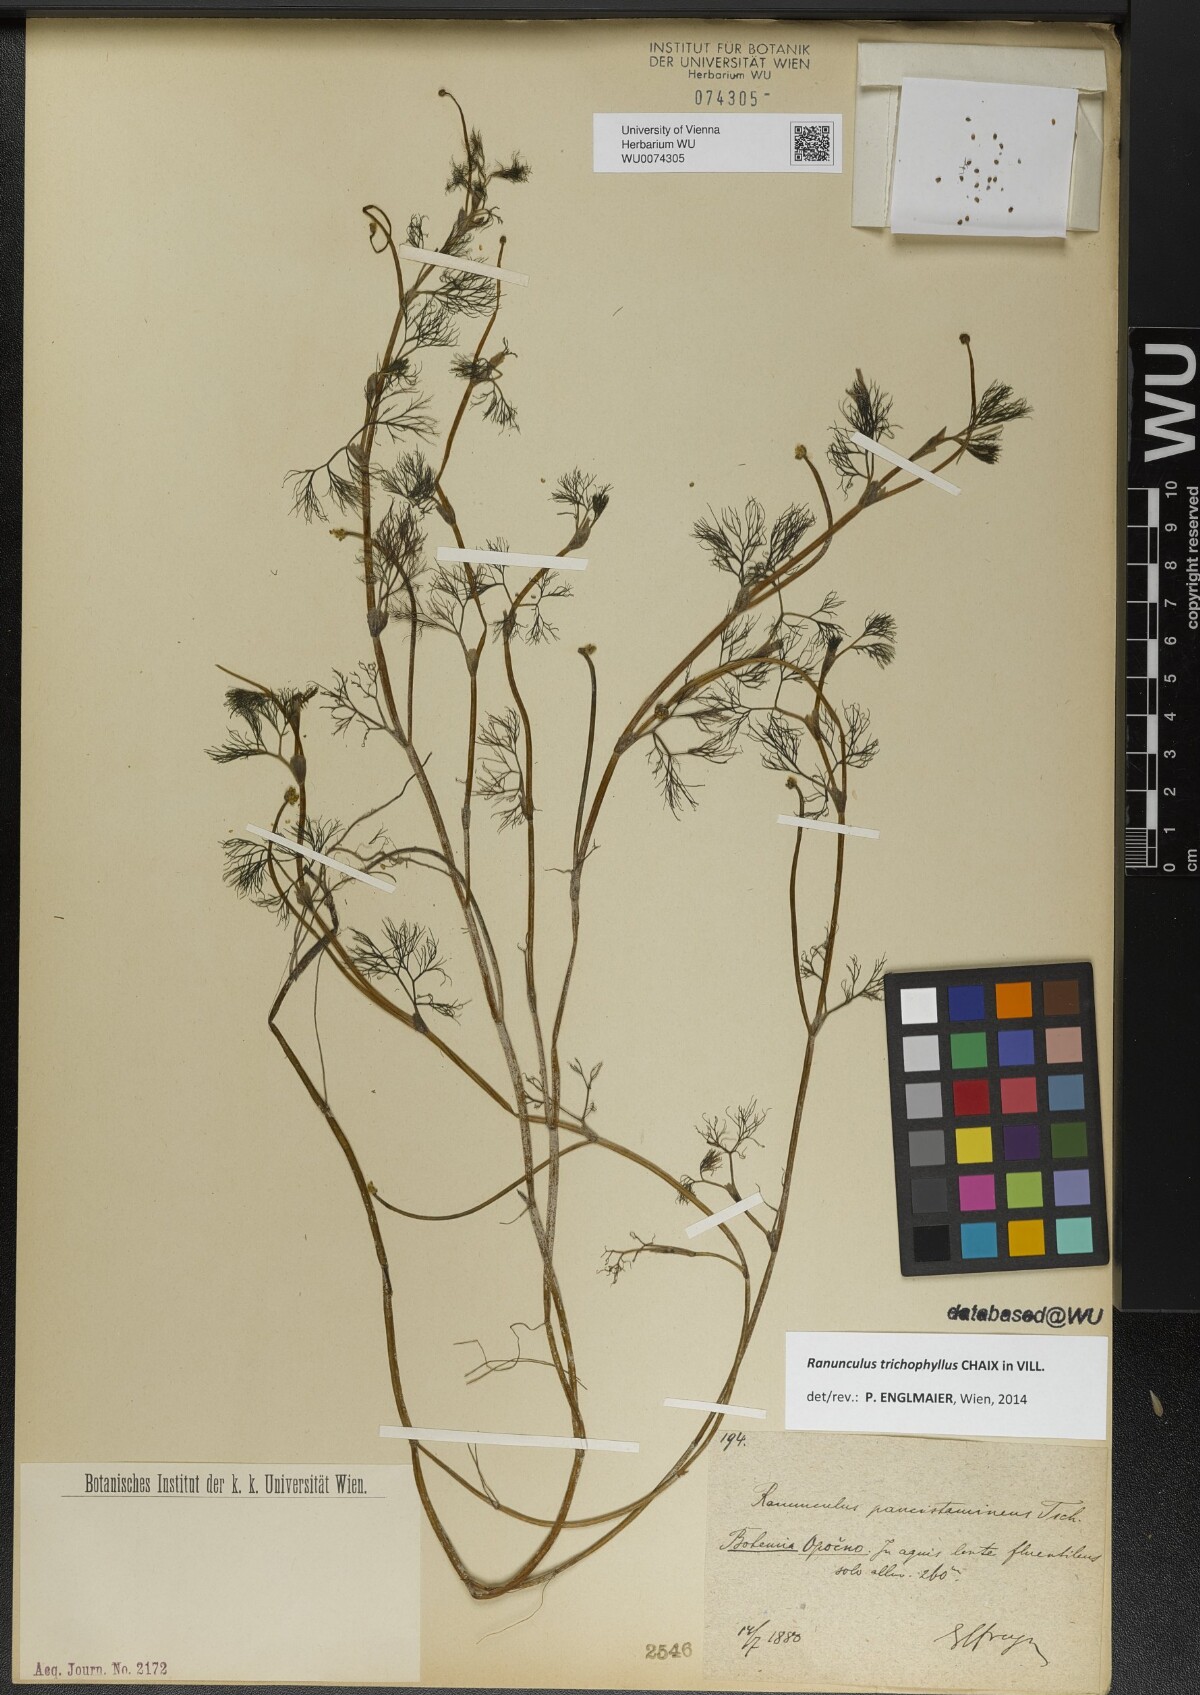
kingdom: Plantae
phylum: Tracheophyta
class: Magnoliopsida
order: Ranunculales
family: Ranunculaceae
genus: Ranunculus
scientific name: Ranunculus trichophyllus
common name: Thread-leaved water-crowfoot
